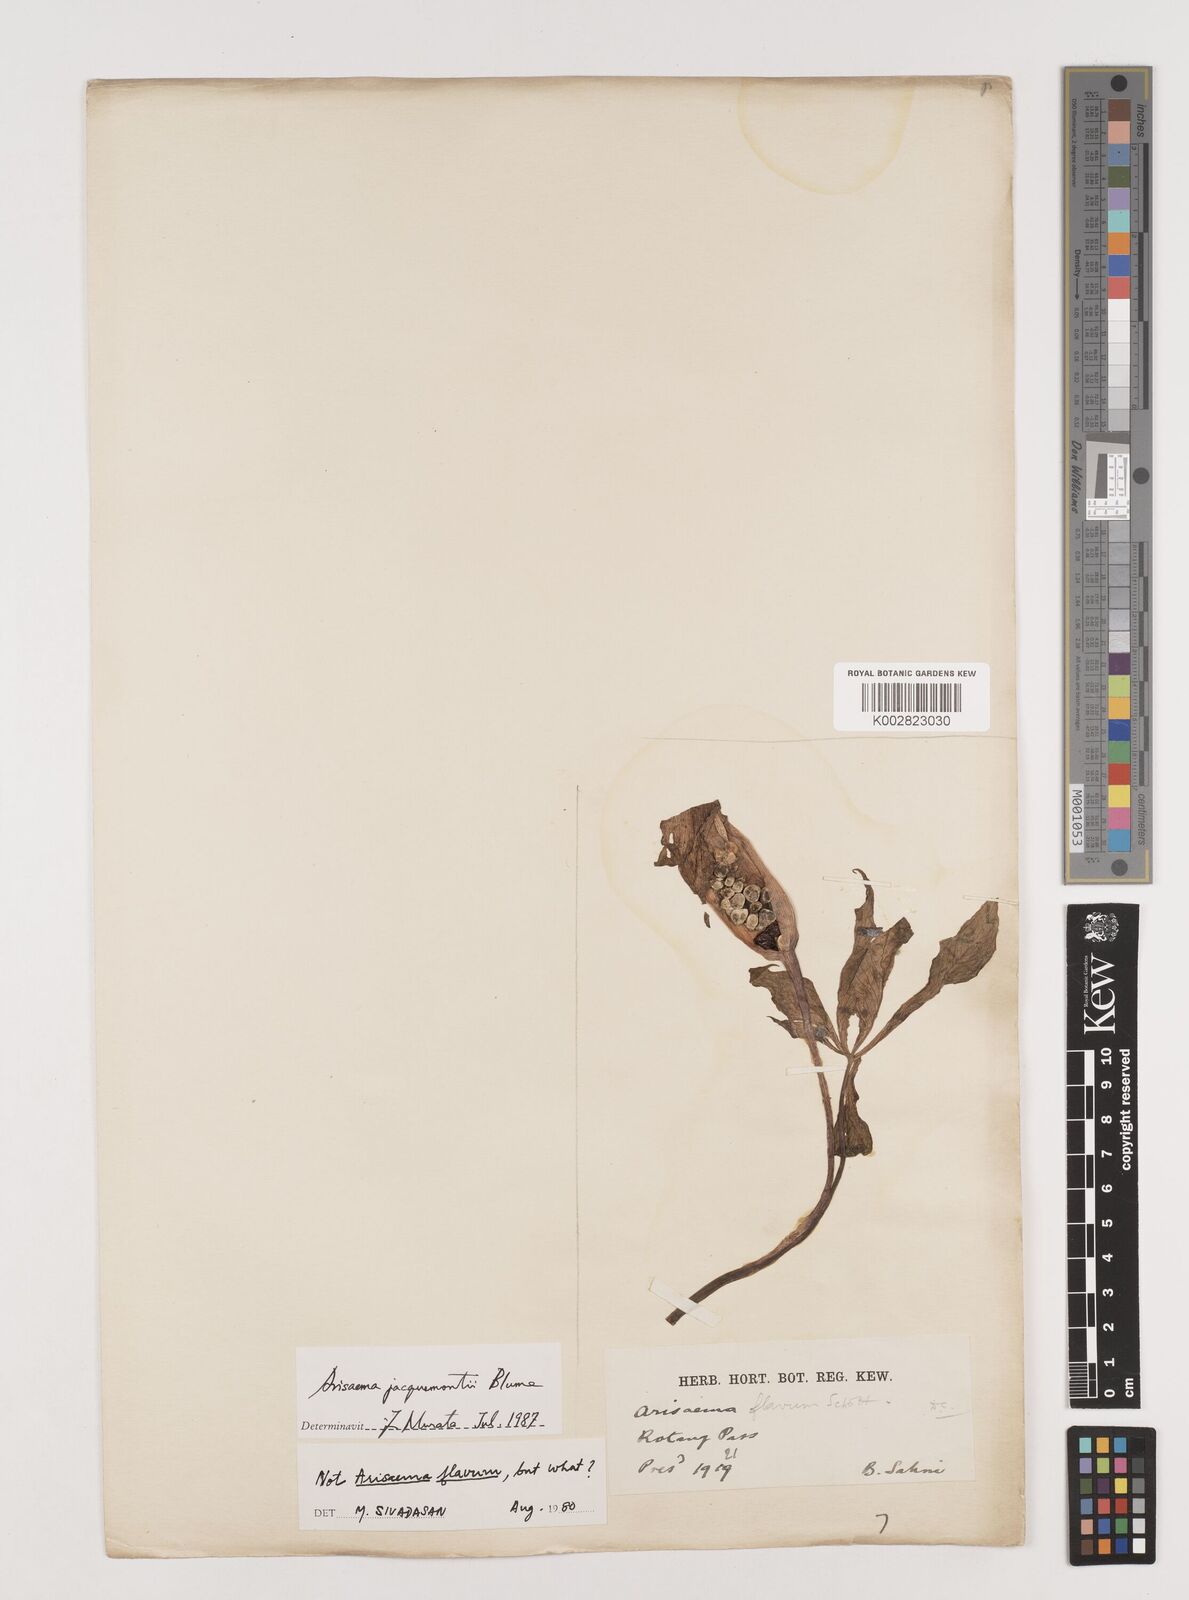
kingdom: Plantae
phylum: Tracheophyta
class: Liliopsida
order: Alismatales
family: Araceae
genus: Arisaema
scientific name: Arisaema jacquemontii
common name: Jacquemont's cobra-lily
